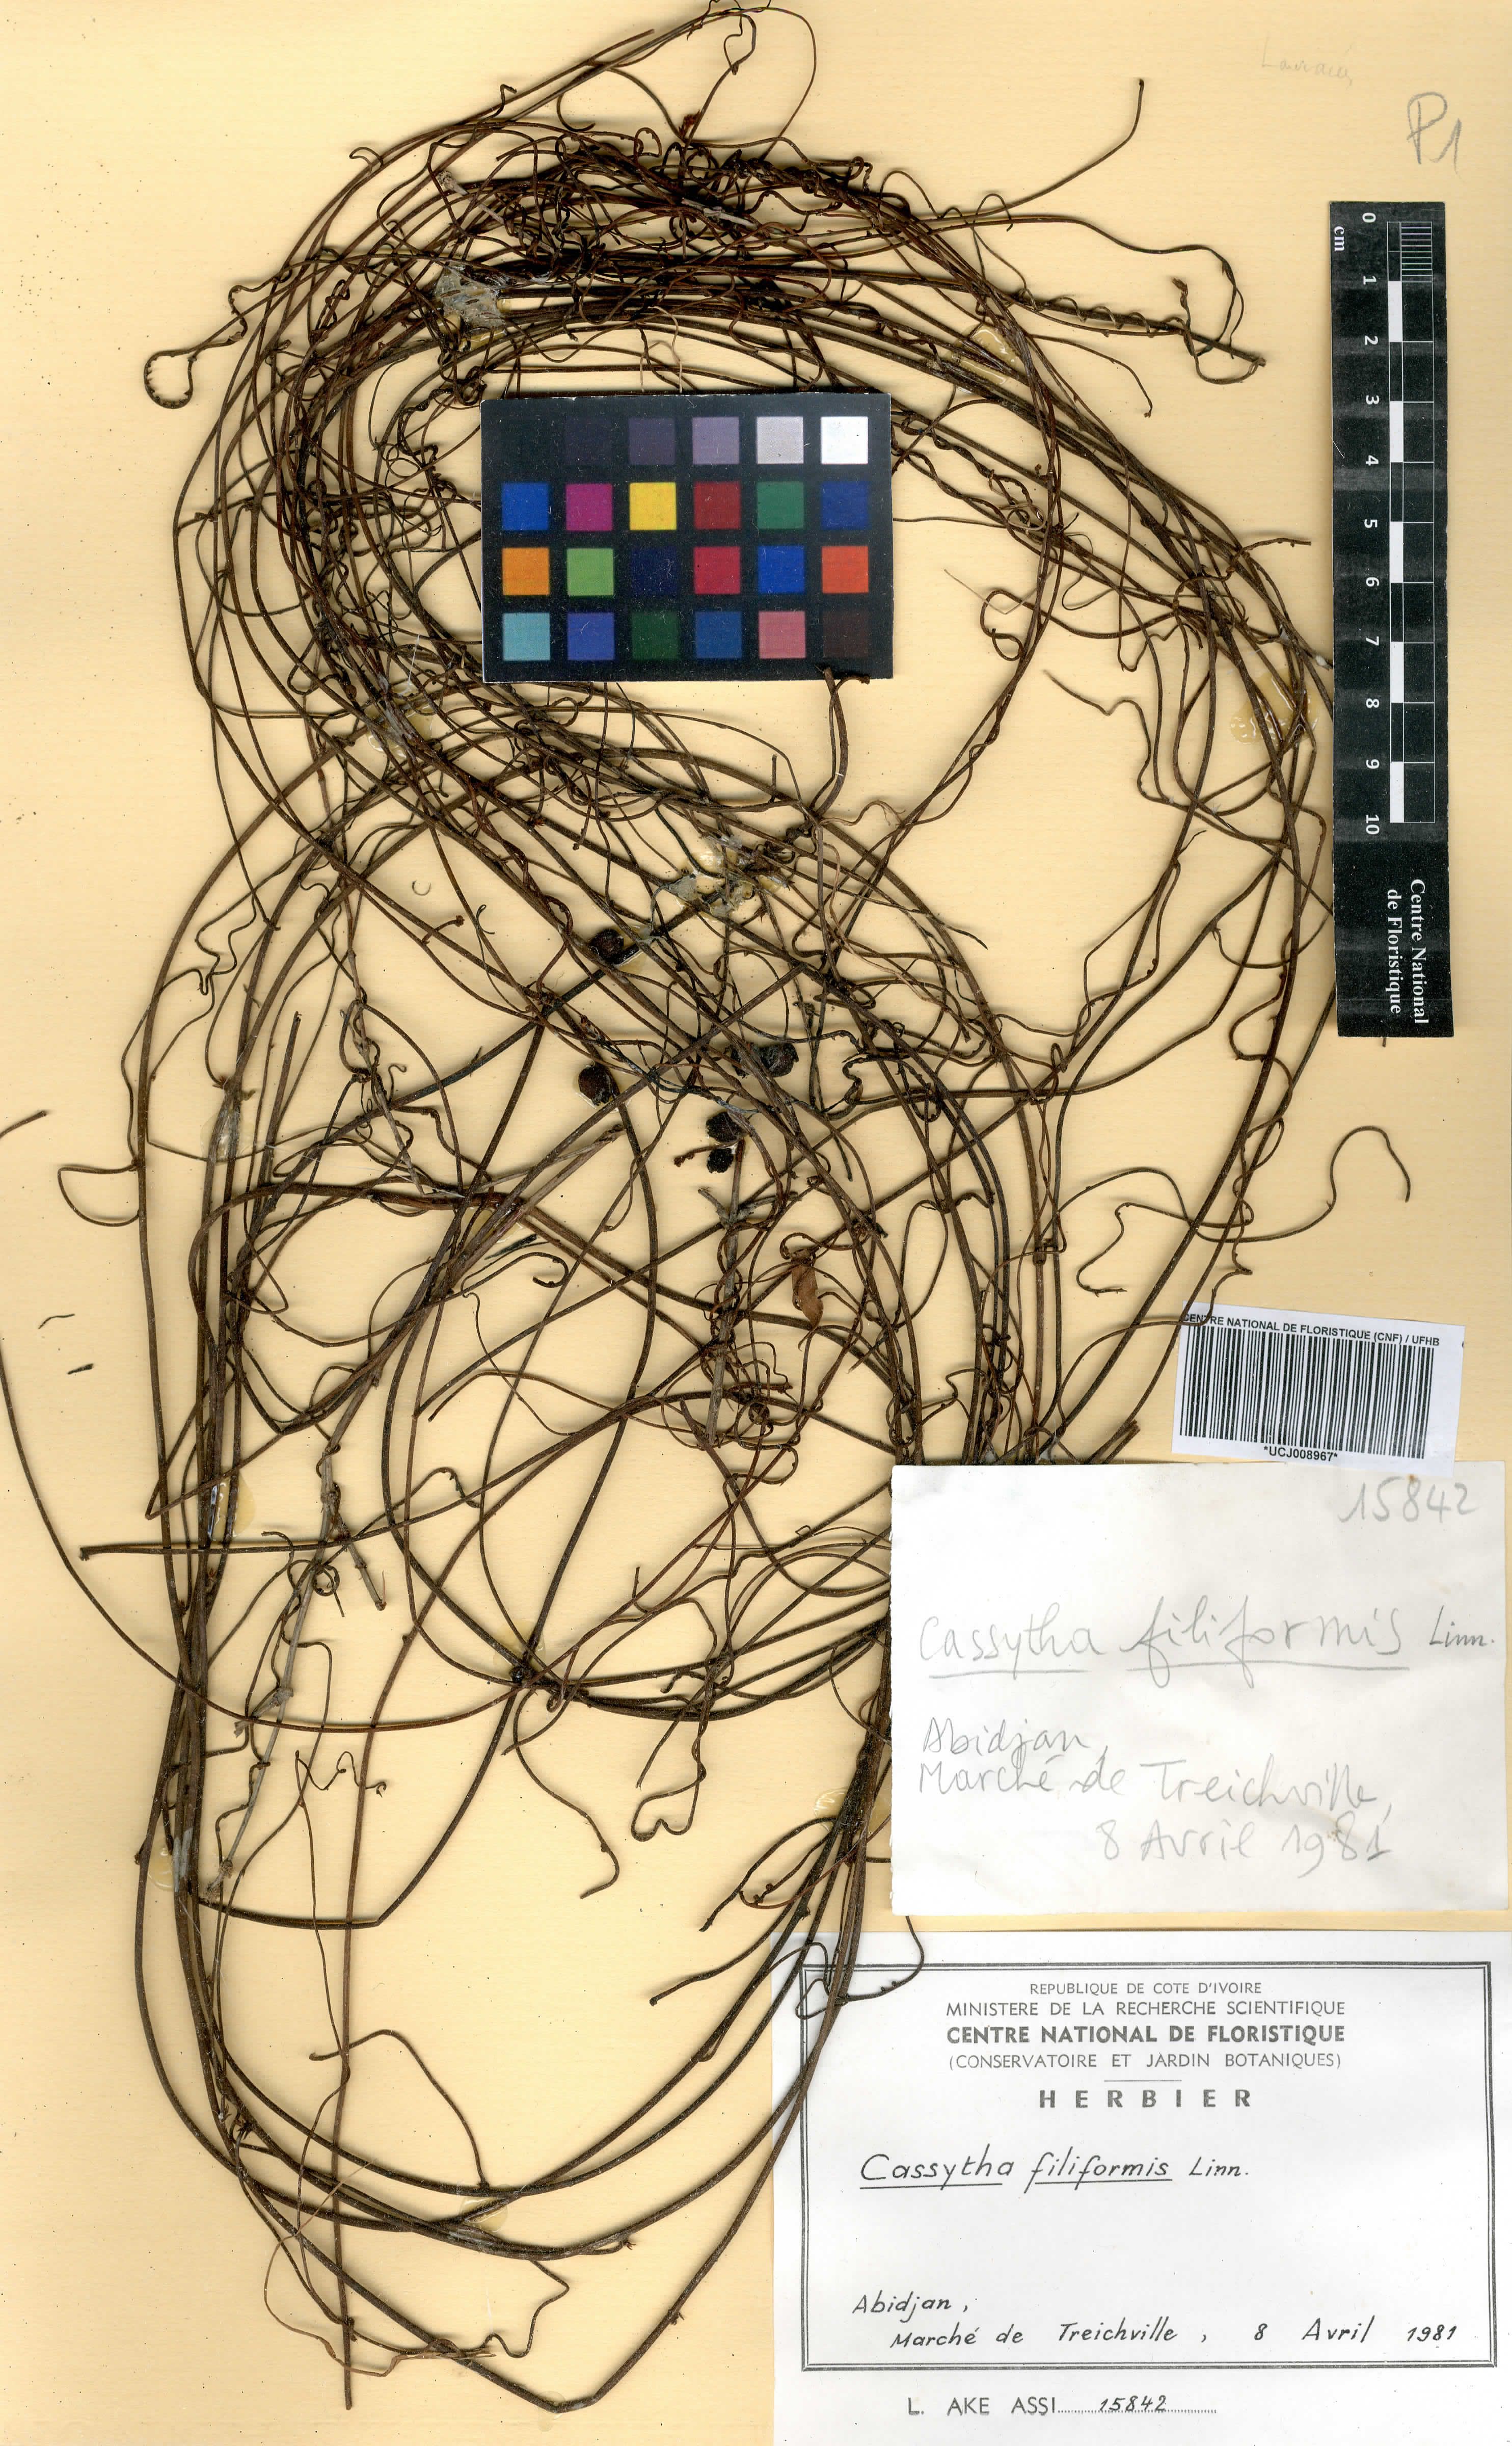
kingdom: Plantae
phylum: Tracheophyta
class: Magnoliopsida
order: Laurales
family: Lauraceae
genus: Cassytha
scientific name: Cassytha filiformis
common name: Dodder-laurel
